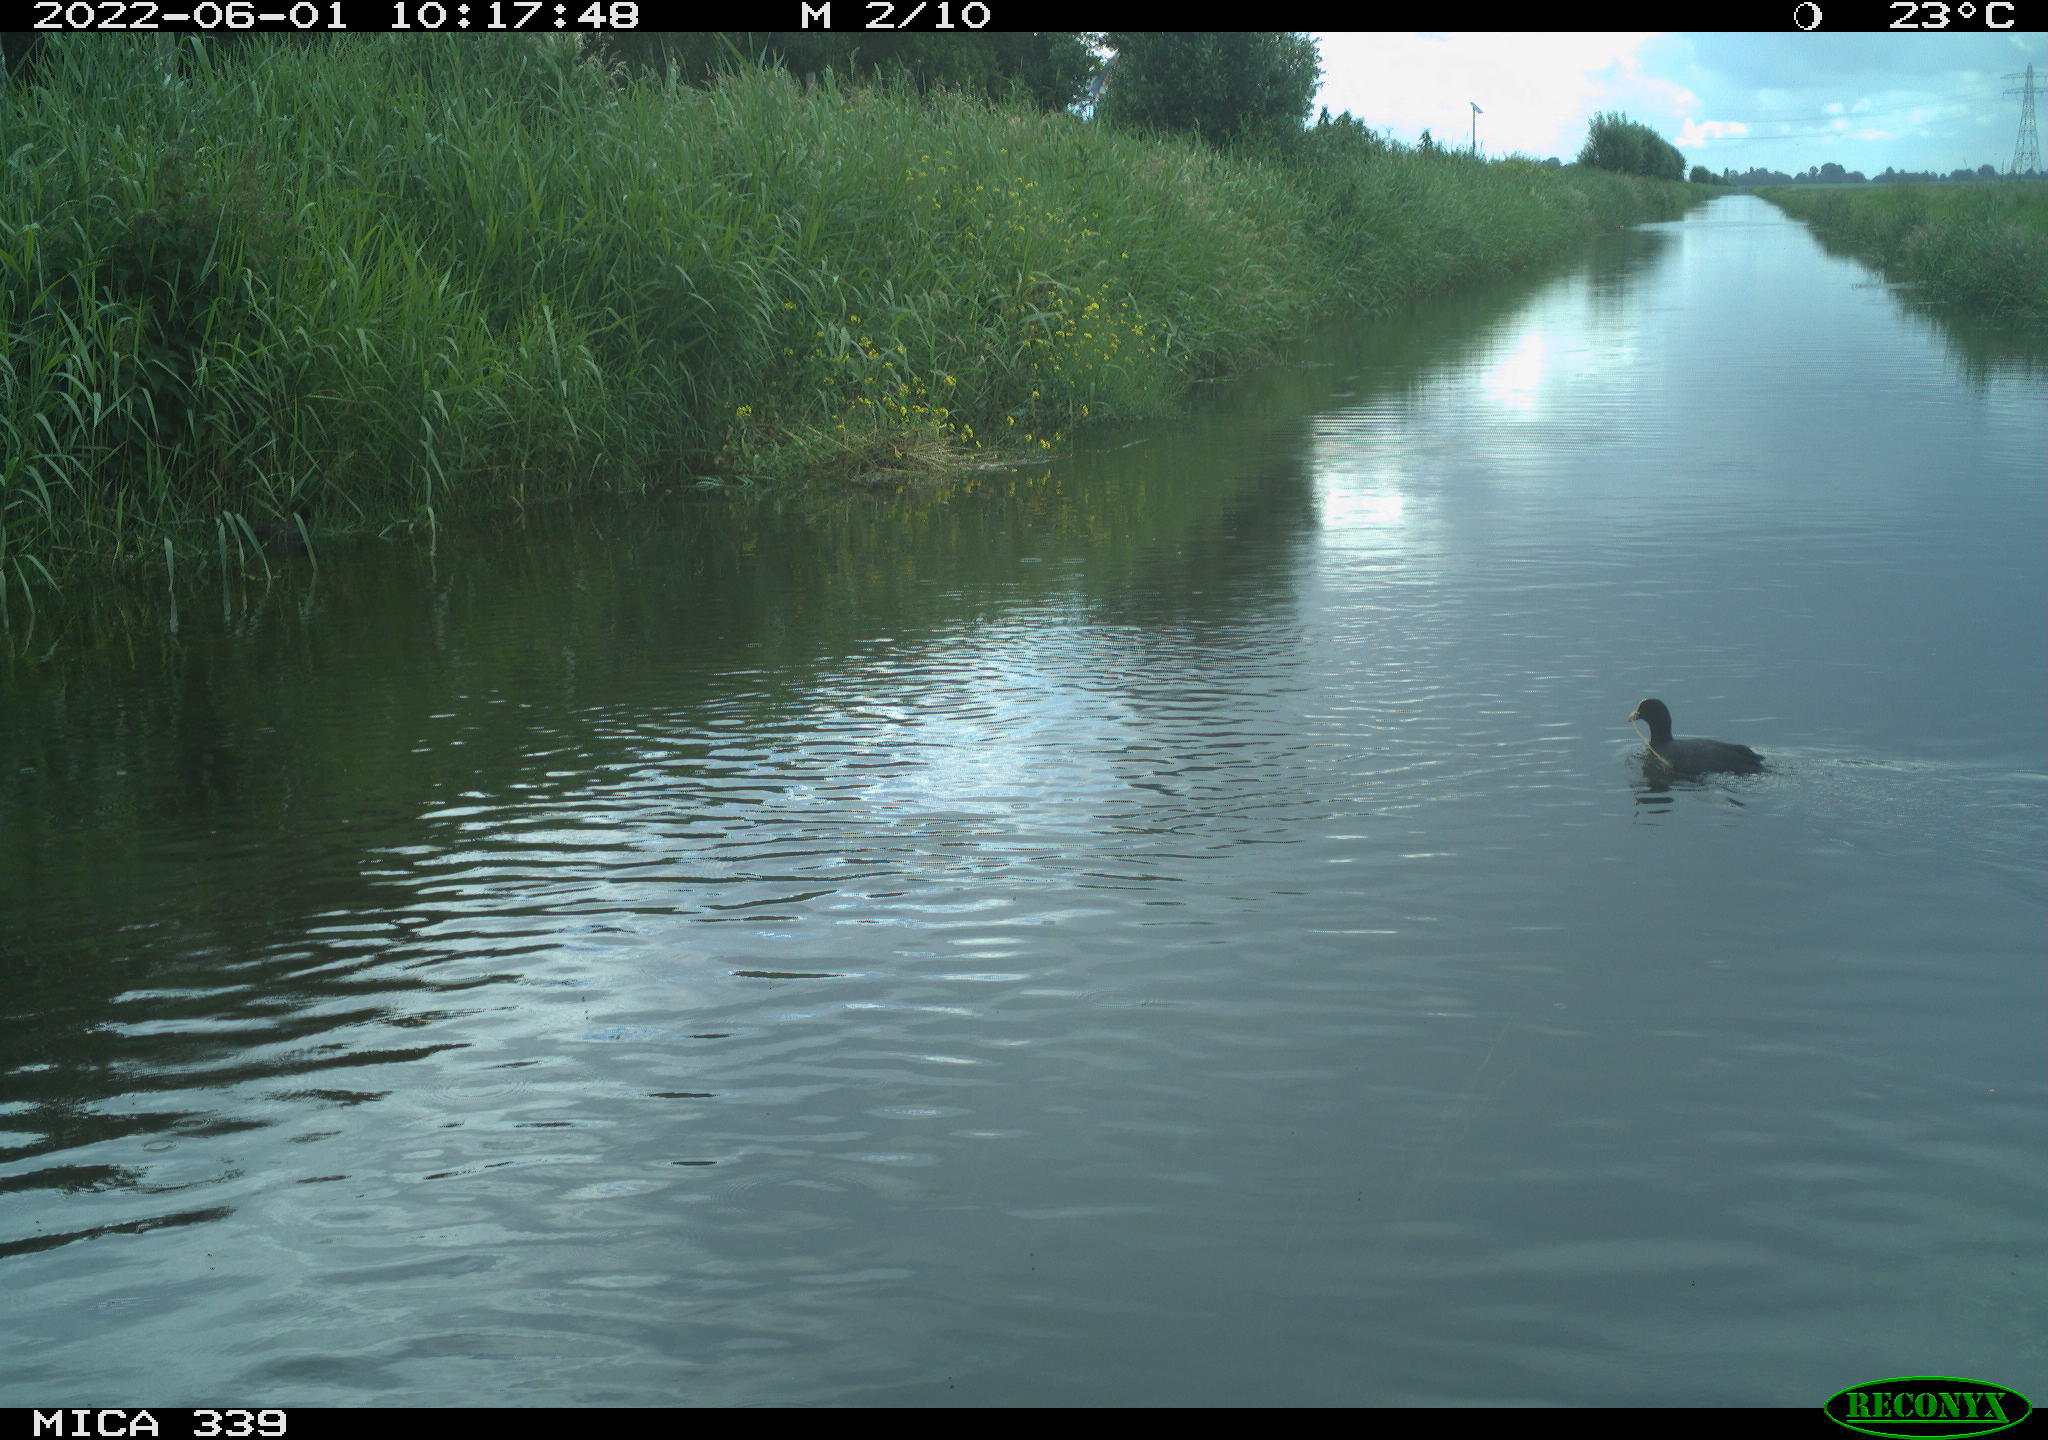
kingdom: Animalia
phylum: Chordata
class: Aves
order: Gruiformes
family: Rallidae
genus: Fulica
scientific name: Fulica atra
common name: Eurasian coot
